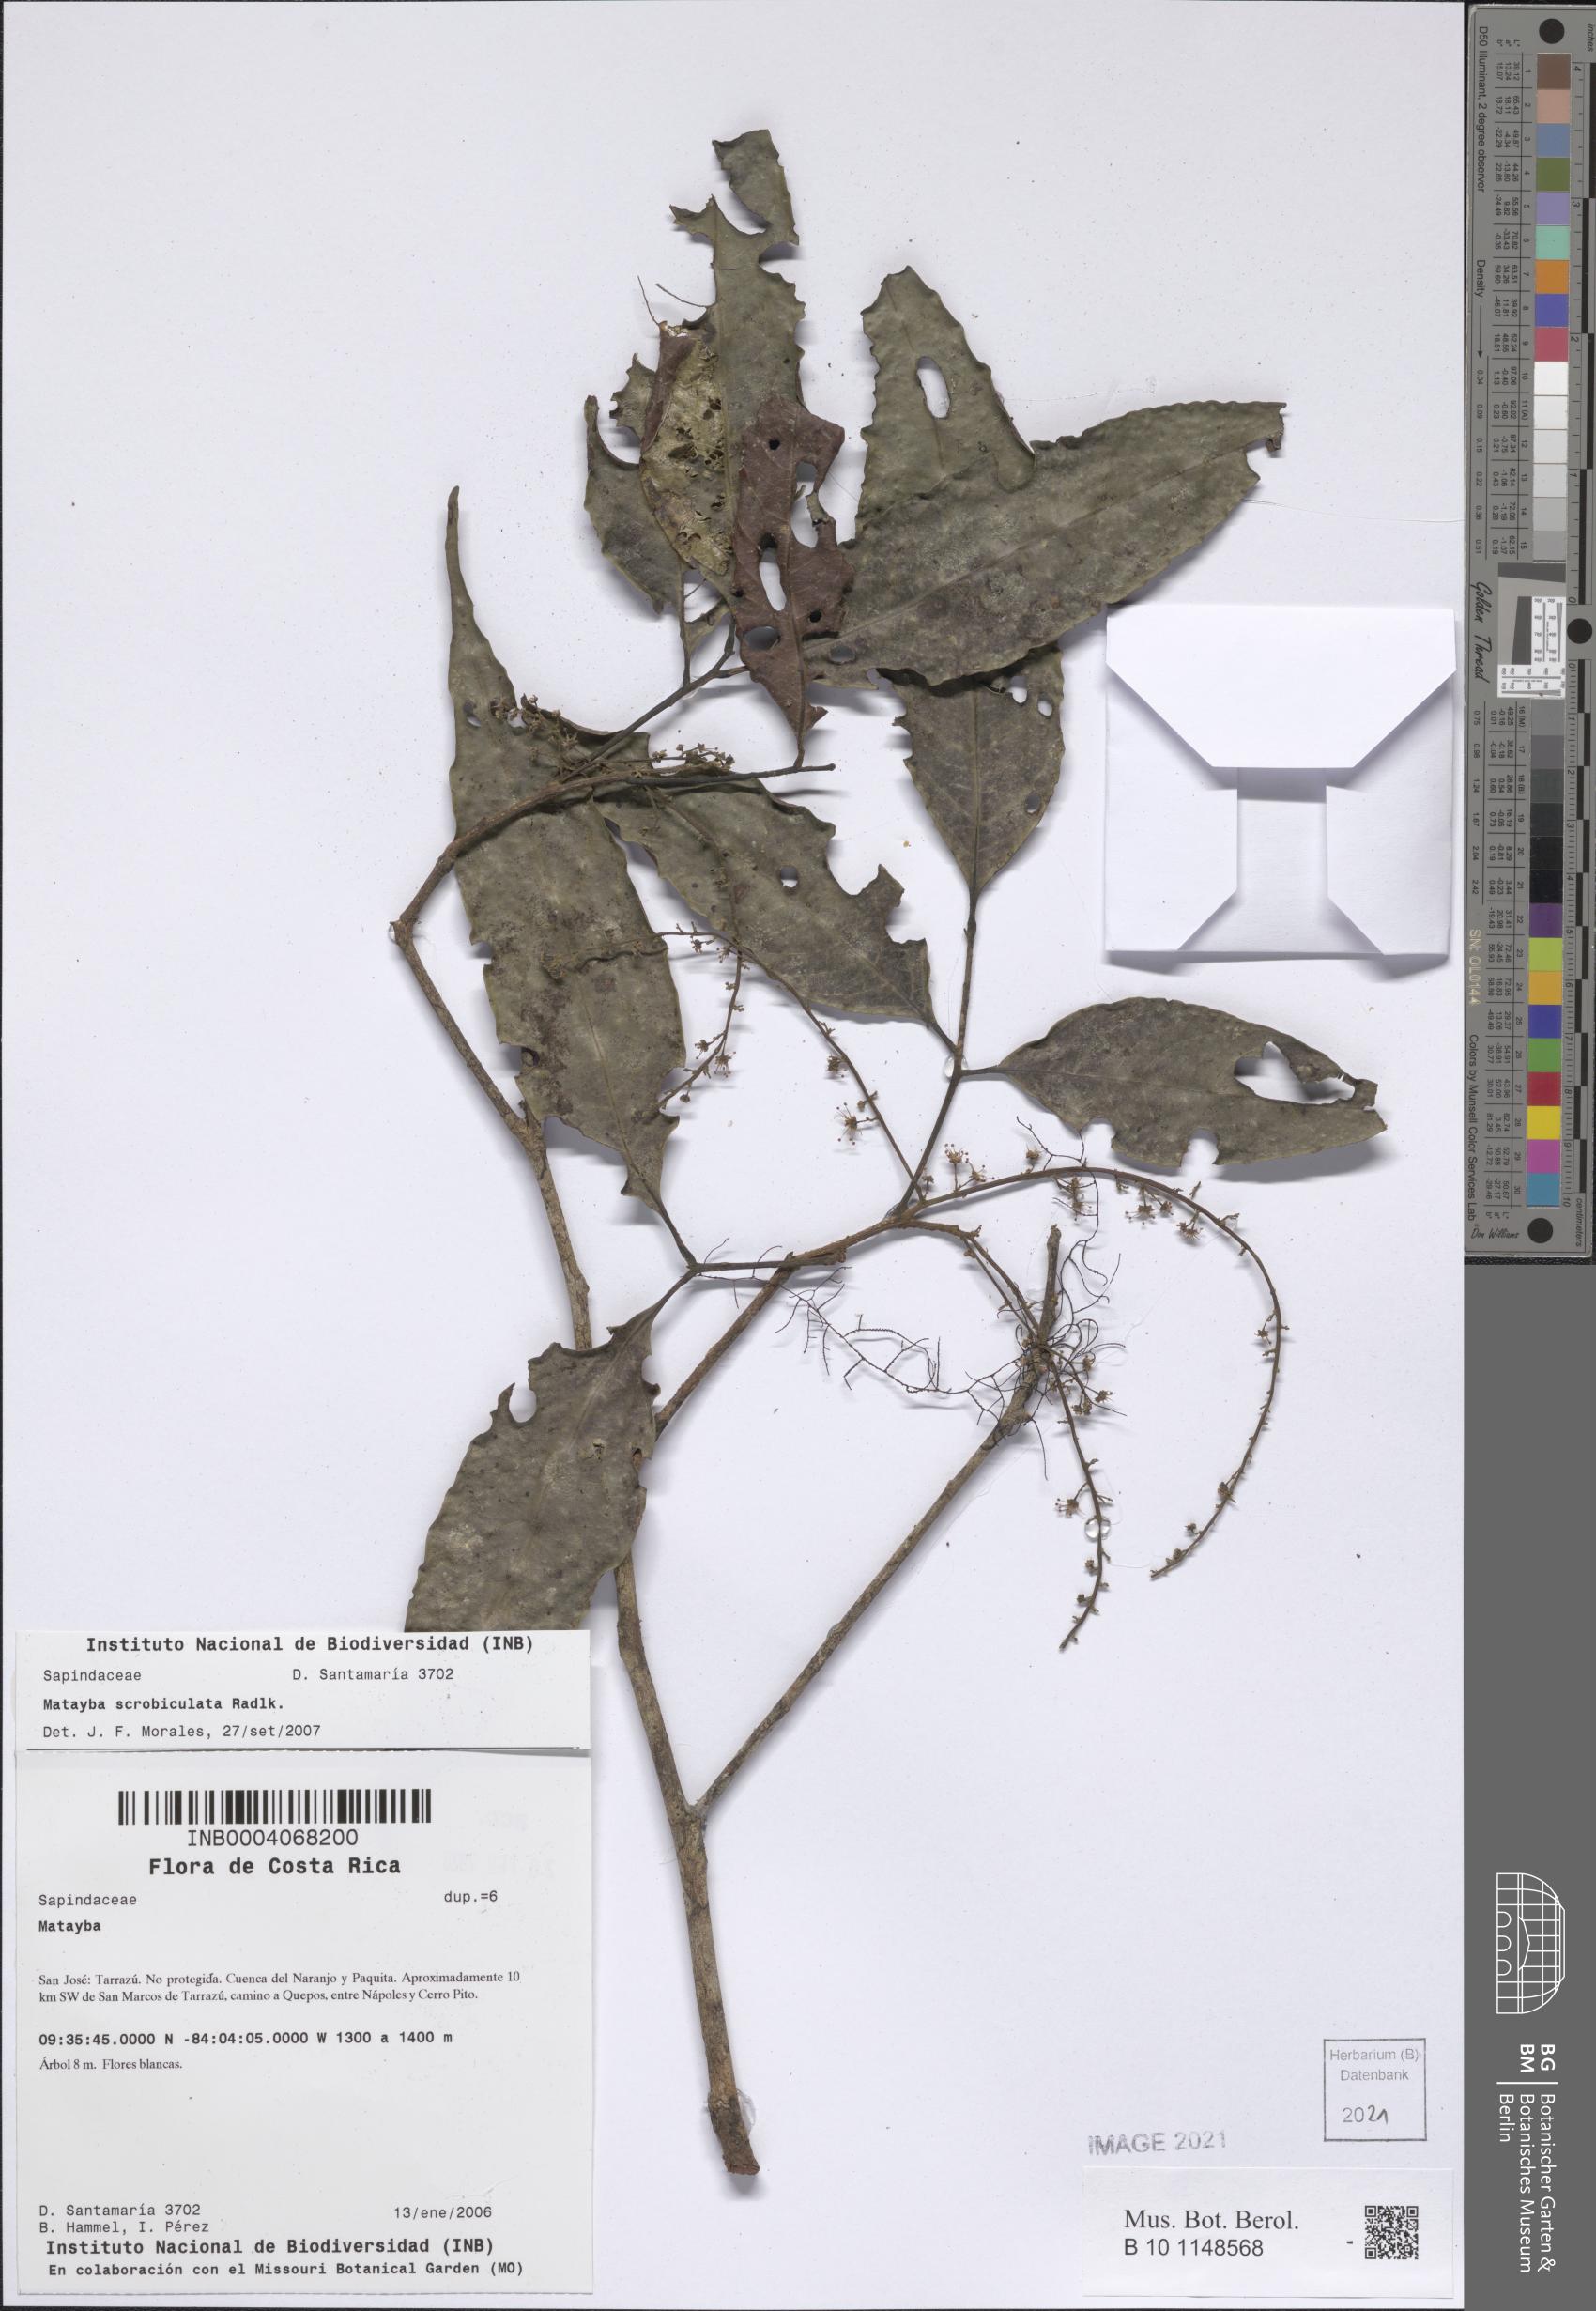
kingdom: Plantae
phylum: Tracheophyta
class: Magnoliopsida
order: Sapindales
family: Sapindaceae
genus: Matayba
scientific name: Matayba scrobiculata
